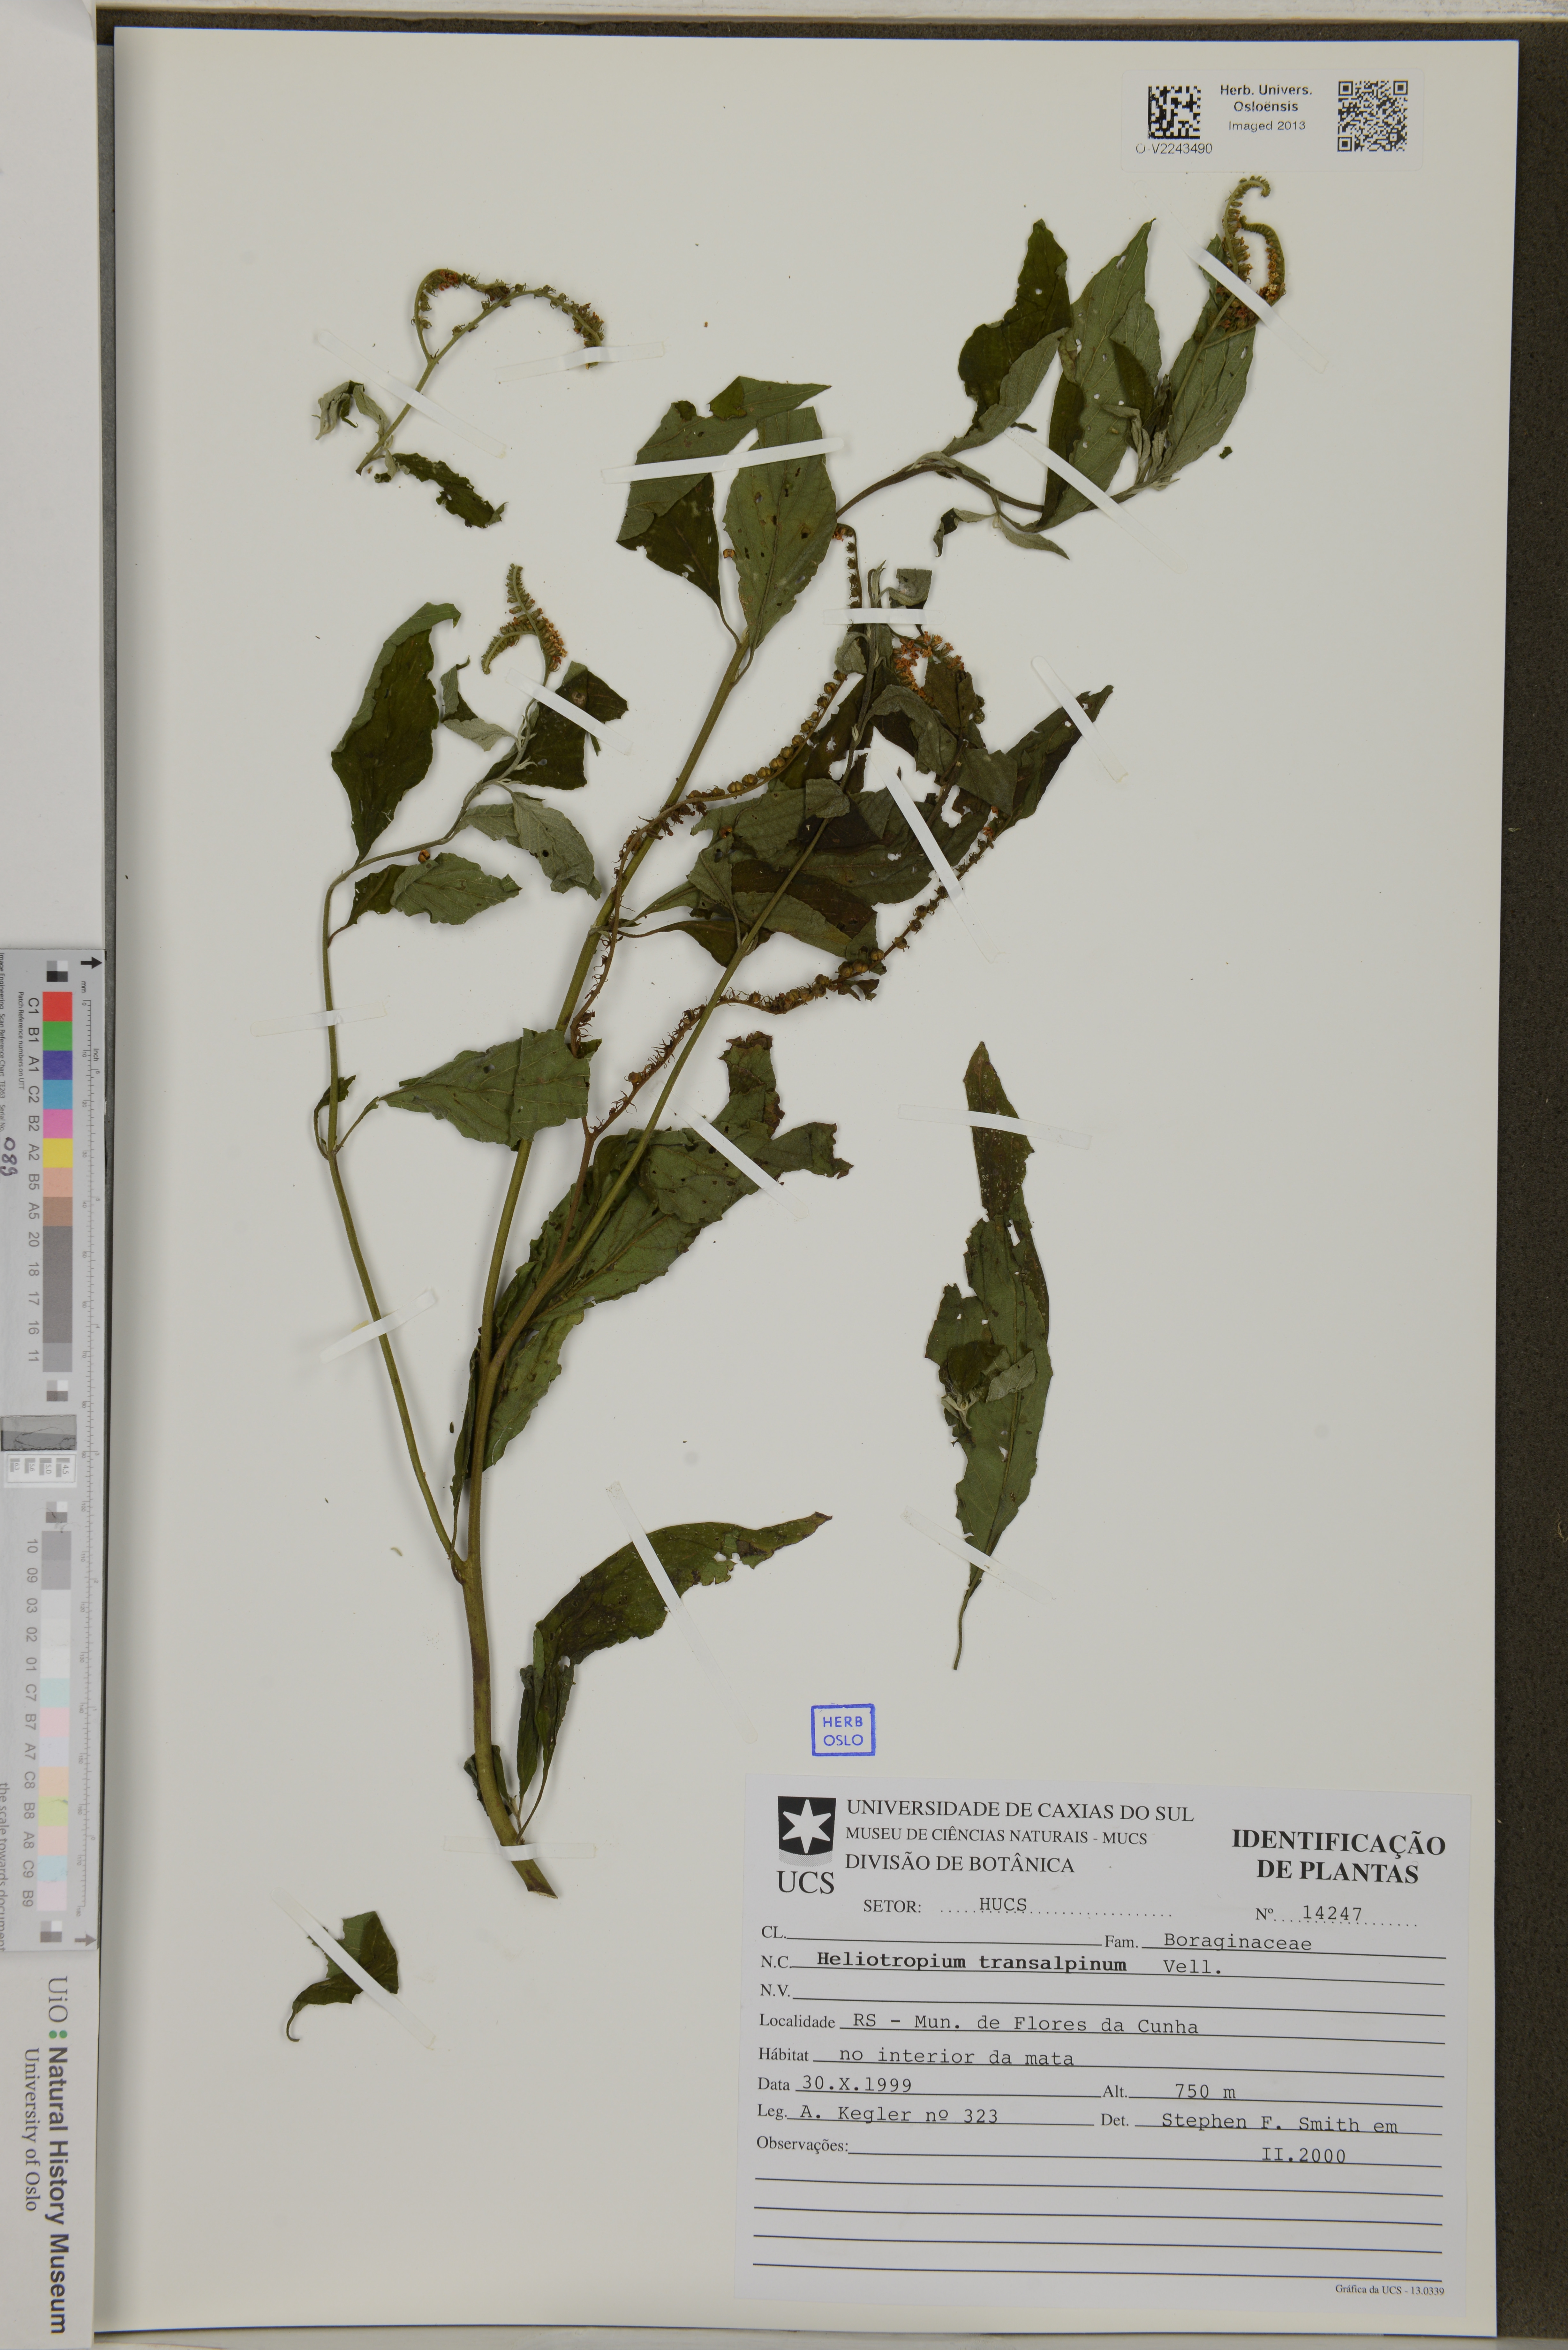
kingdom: Plantae
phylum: Tracheophyta
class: Magnoliopsida
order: Boraginales
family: Heliotropiaceae
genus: Heliotropium
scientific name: Heliotropium transalpinum
